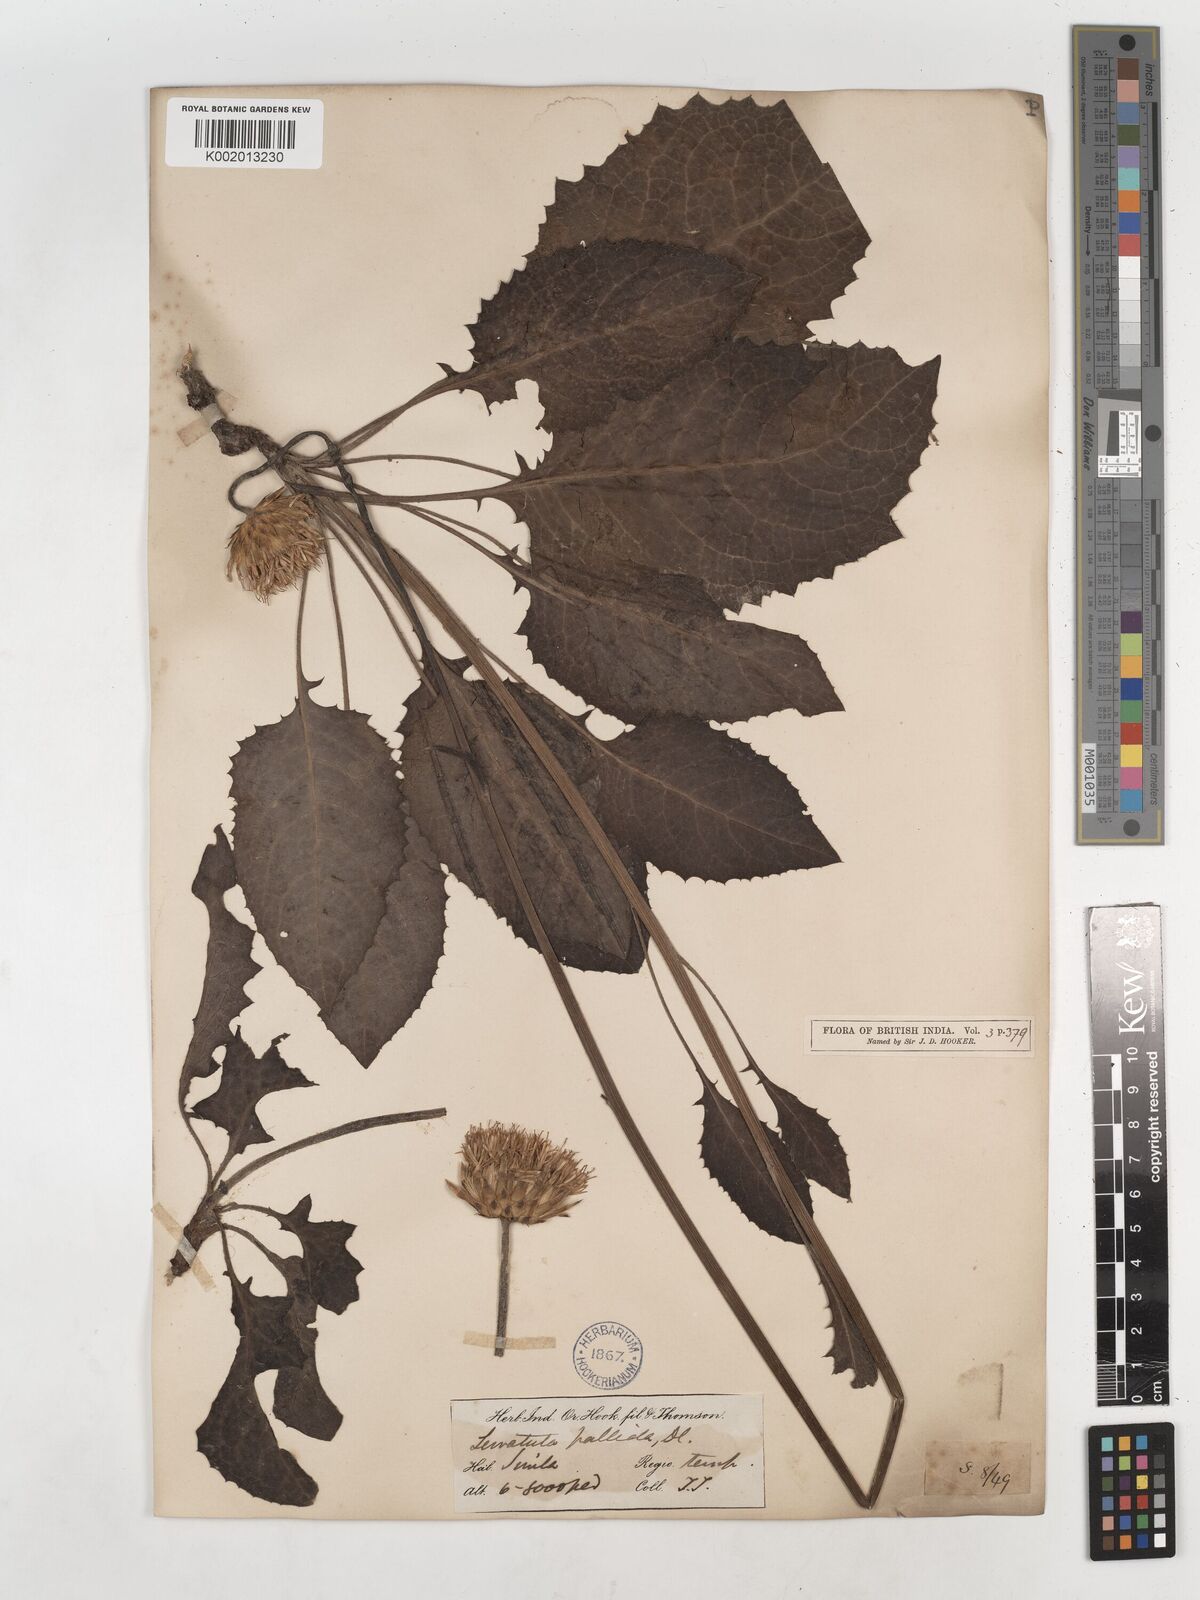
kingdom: Plantae
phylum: Tracheophyta
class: Magnoliopsida
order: Asterales
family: Asteraceae
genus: Klasea
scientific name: Klasea pallida
